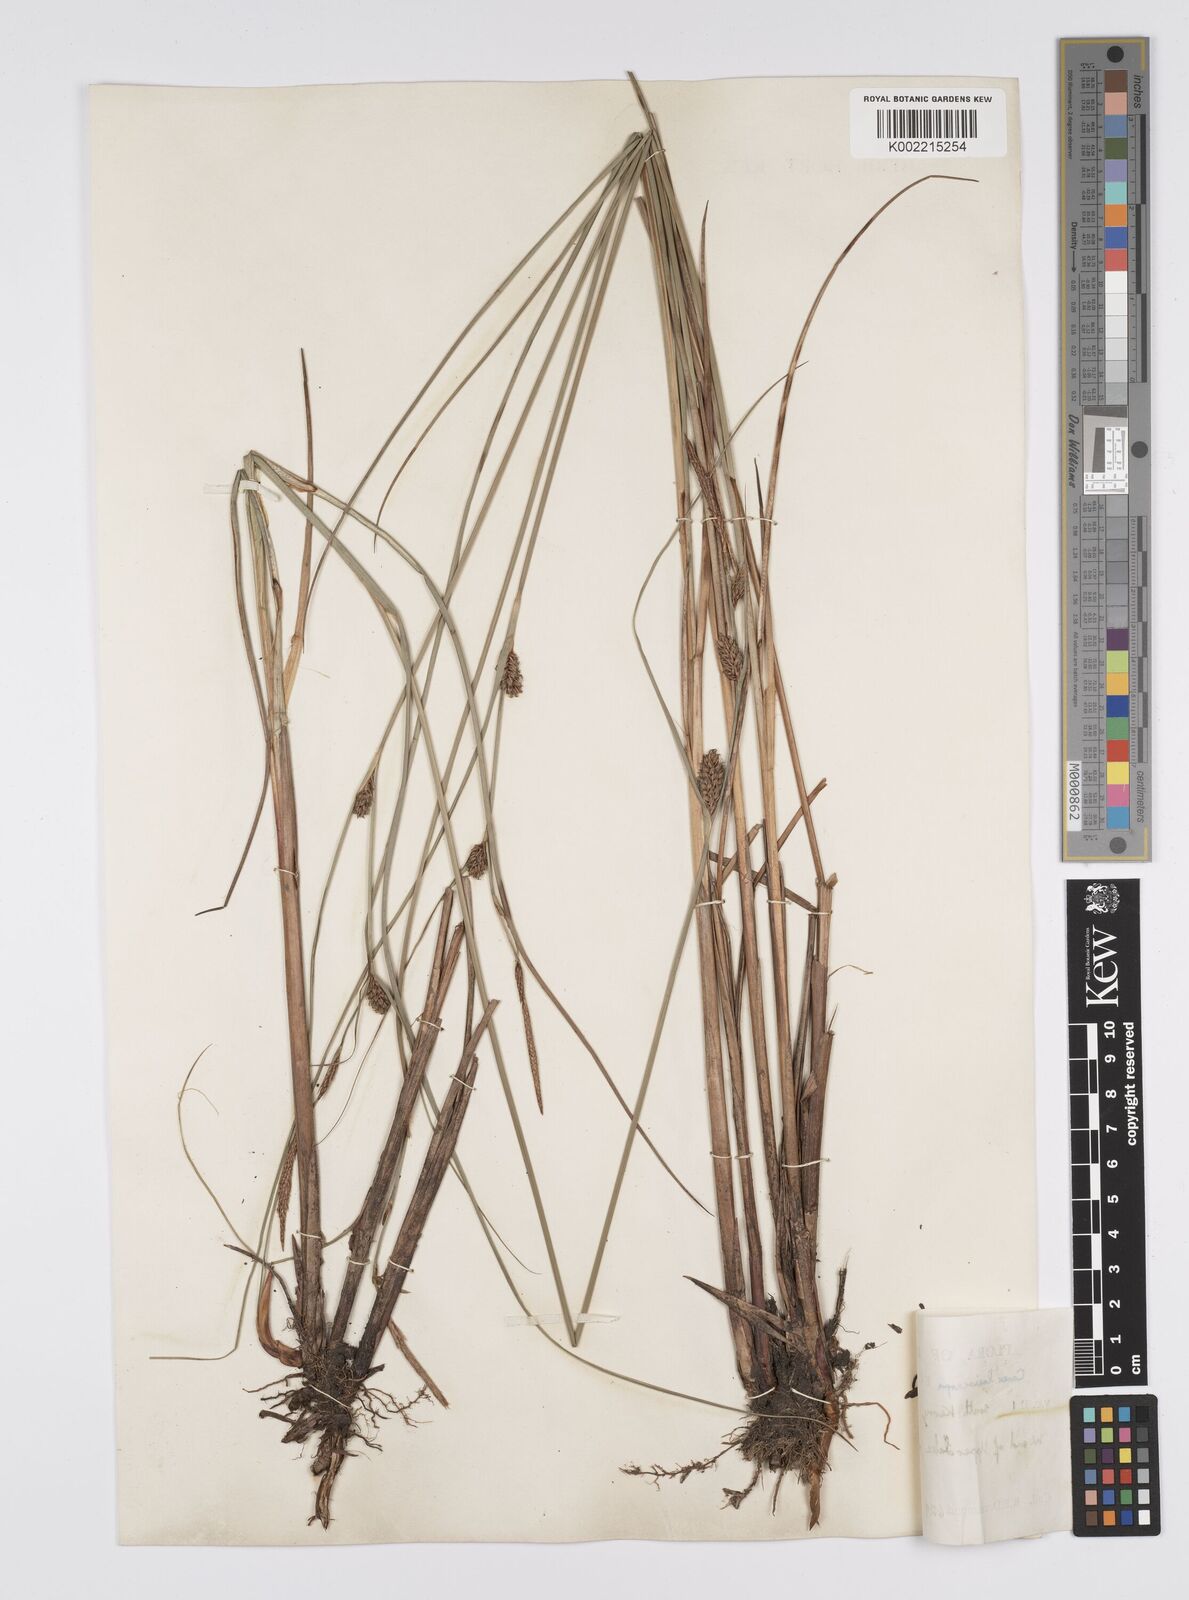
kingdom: Plantae
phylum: Tracheophyta
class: Liliopsida
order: Poales
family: Cyperaceae
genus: Carex
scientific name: Carex lasiocarpa
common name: Slender sedge
